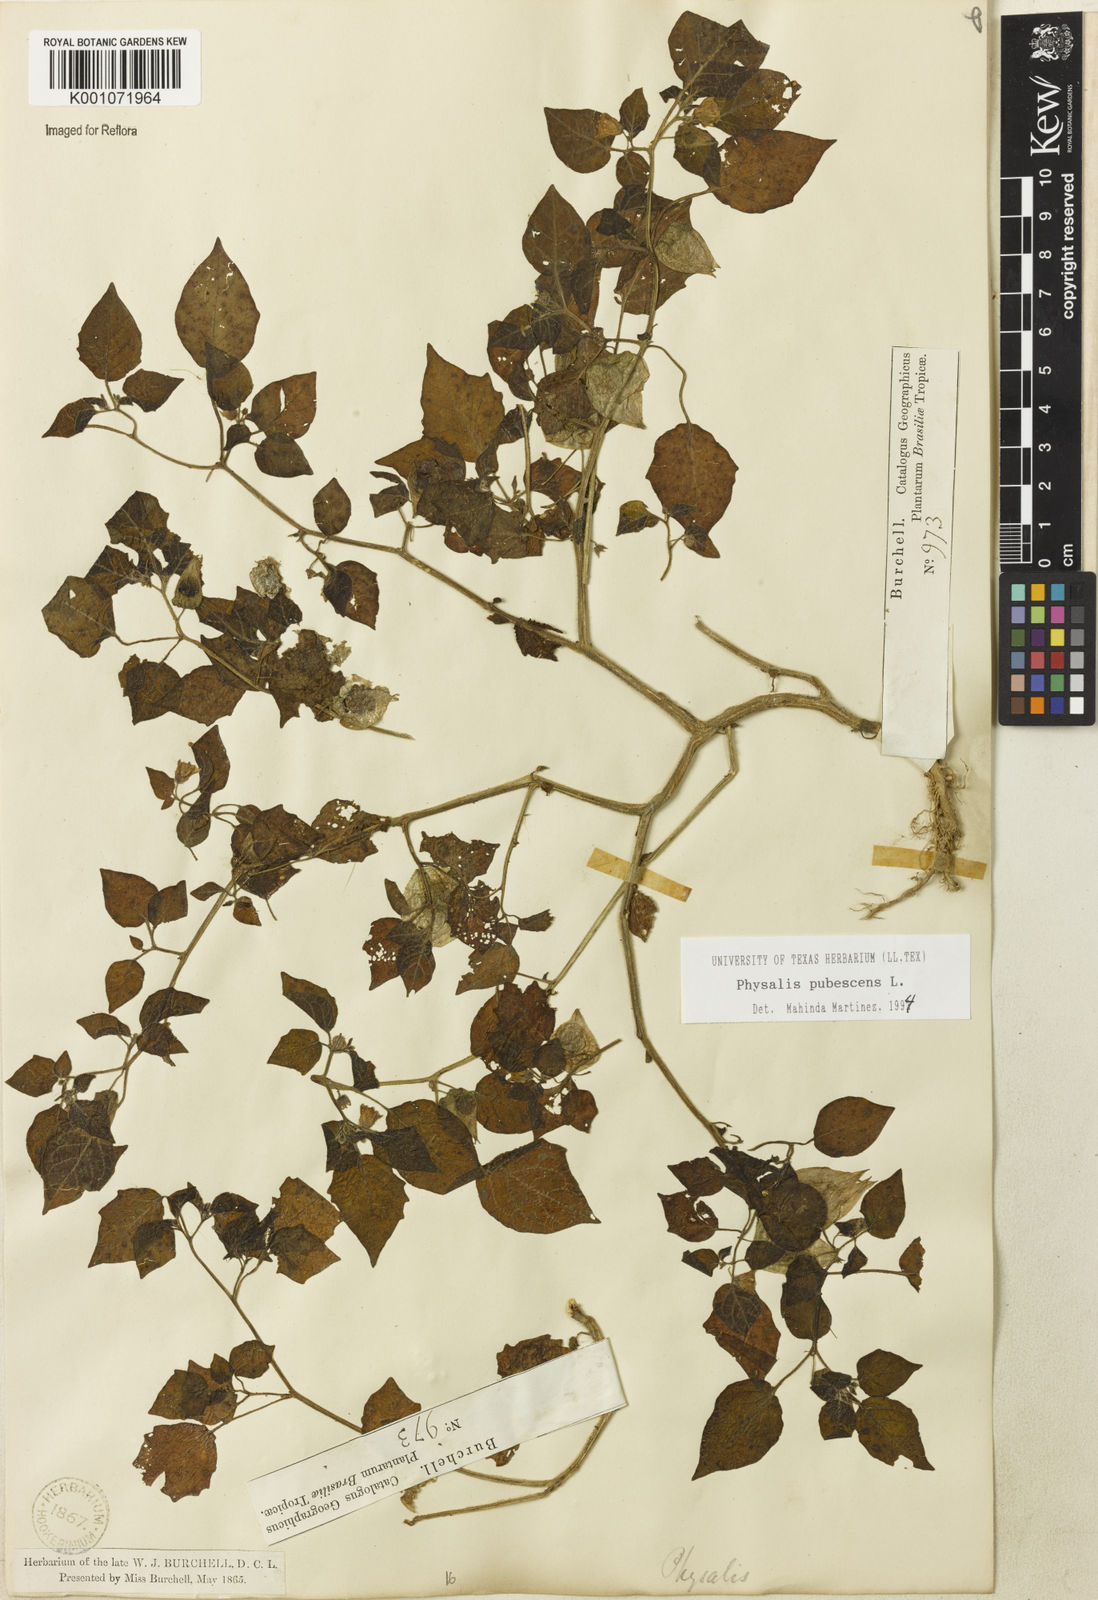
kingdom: Plantae
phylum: Tracheophyta
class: Magnoliopsida
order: Solanales
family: Solanaceae
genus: Physalis
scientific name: Physalis pubescens
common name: Downy ground-cherry
